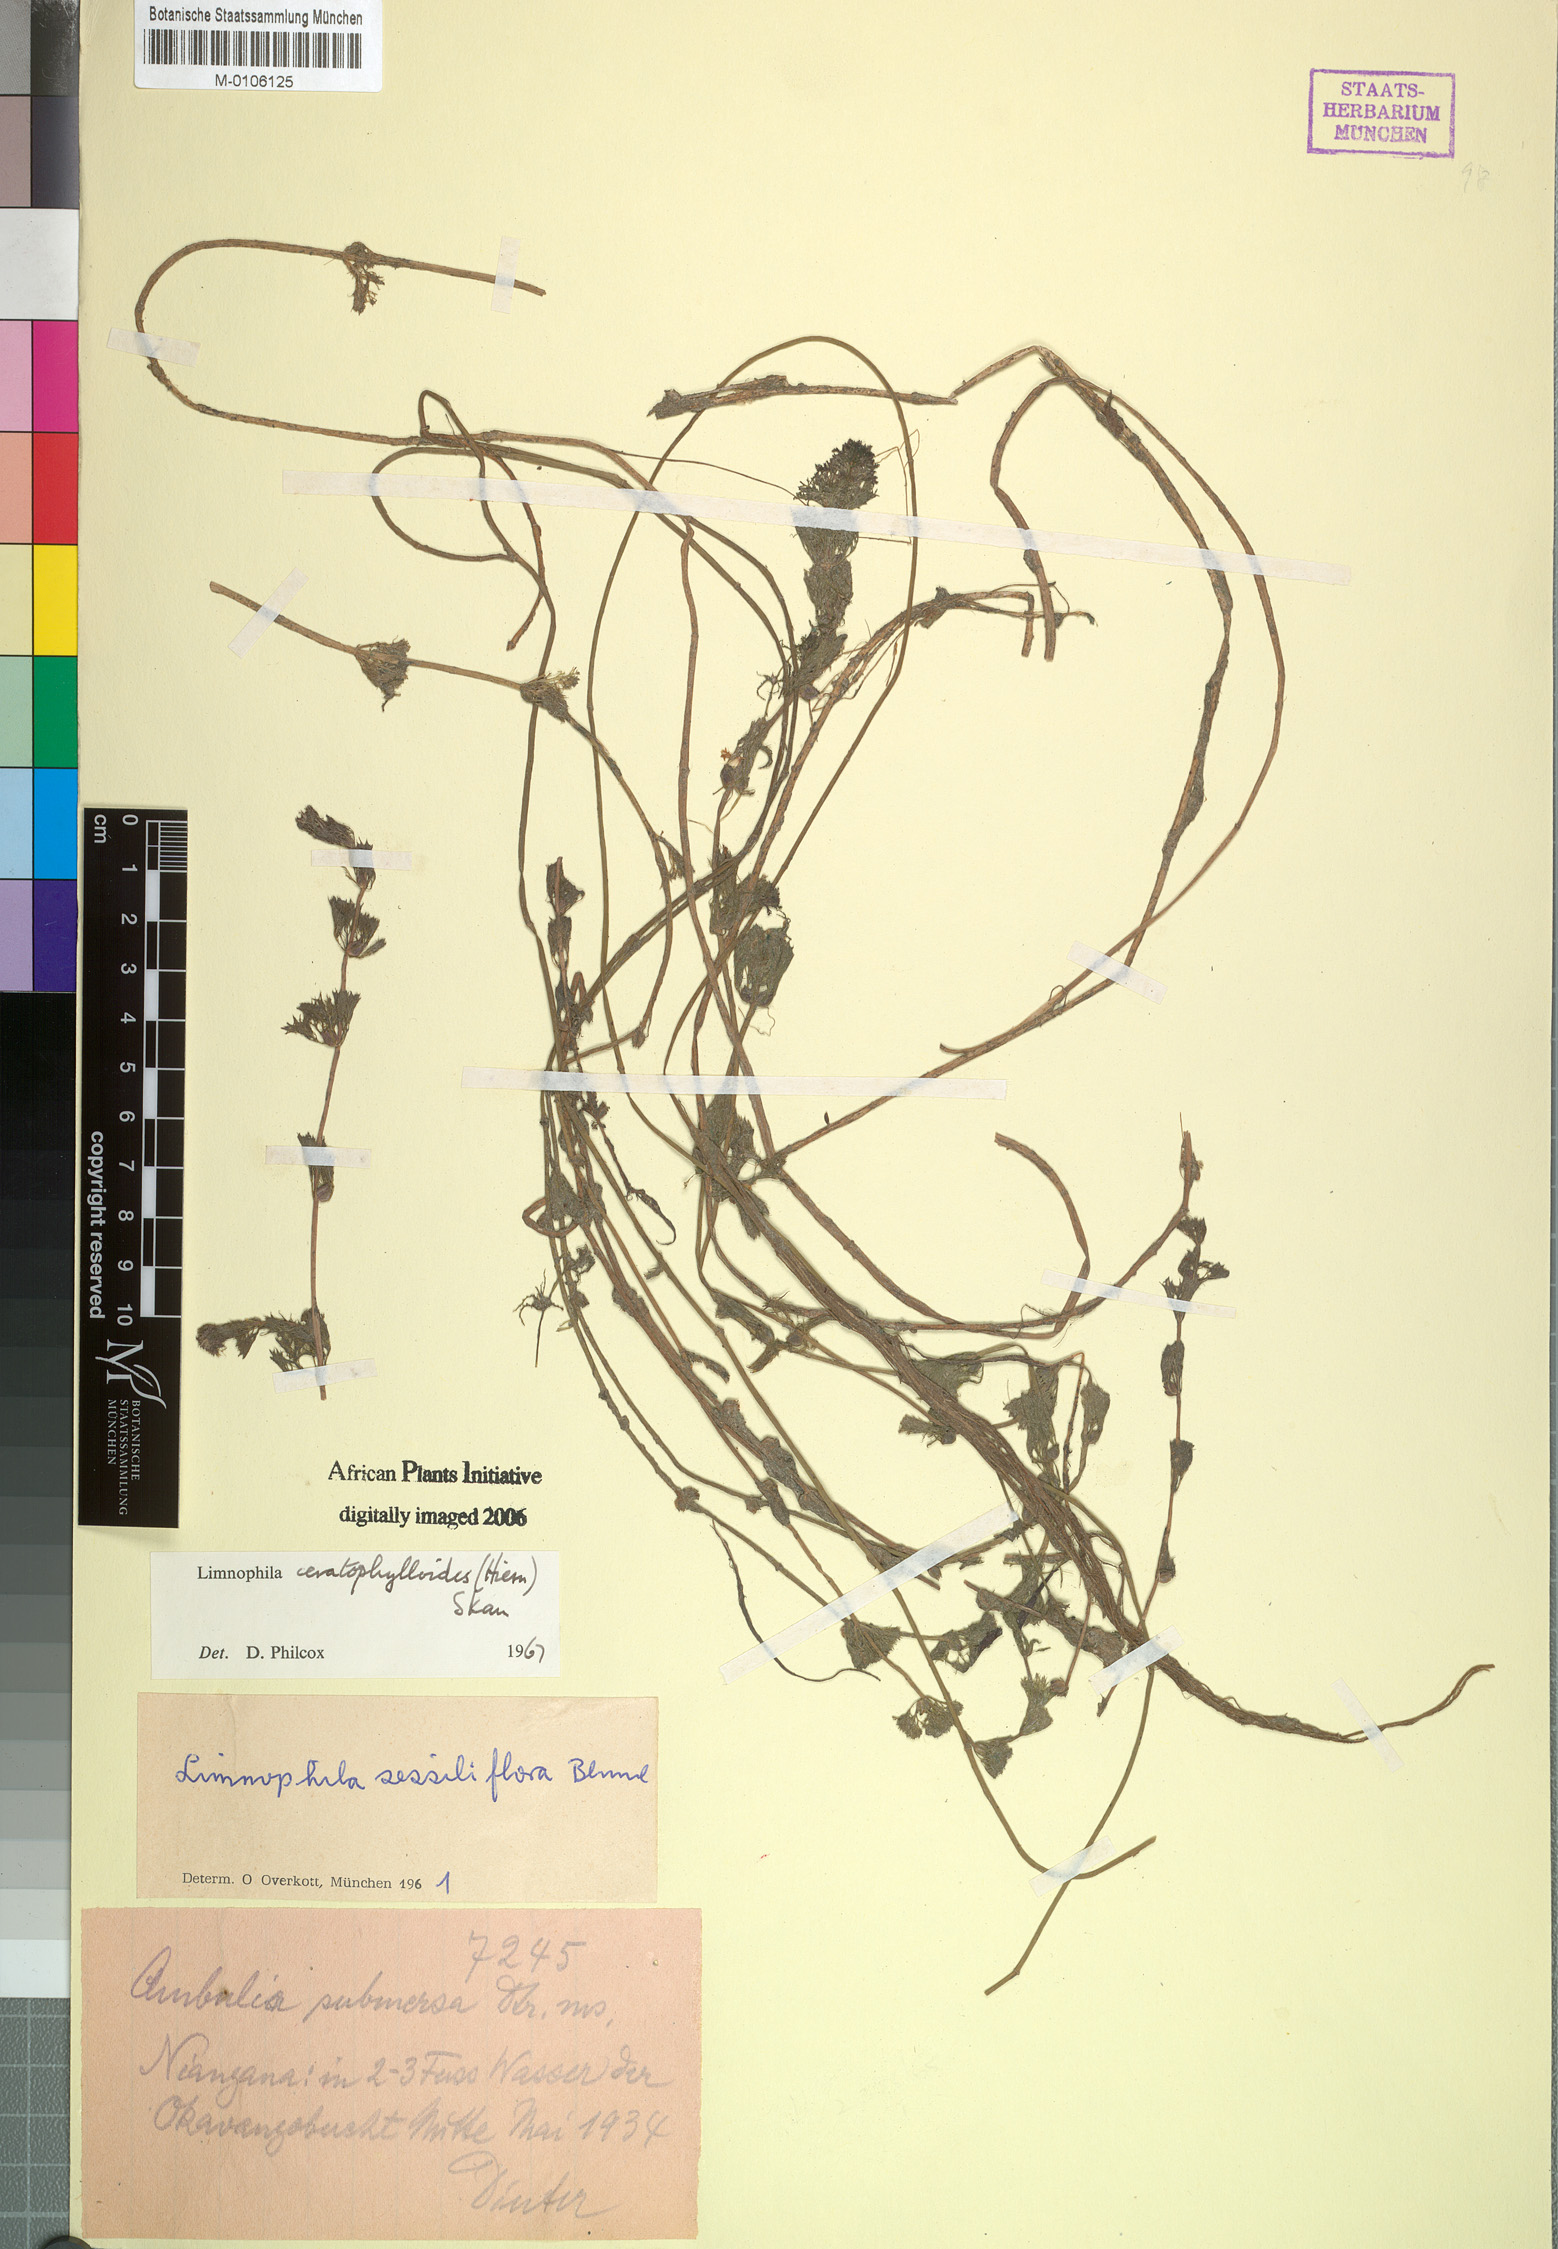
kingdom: Plantae
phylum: Tracheophyta
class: Magnoliopsida
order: Lamiales
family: Plantaginaceae
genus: Limnophila
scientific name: Limnophila ceratophylloides
